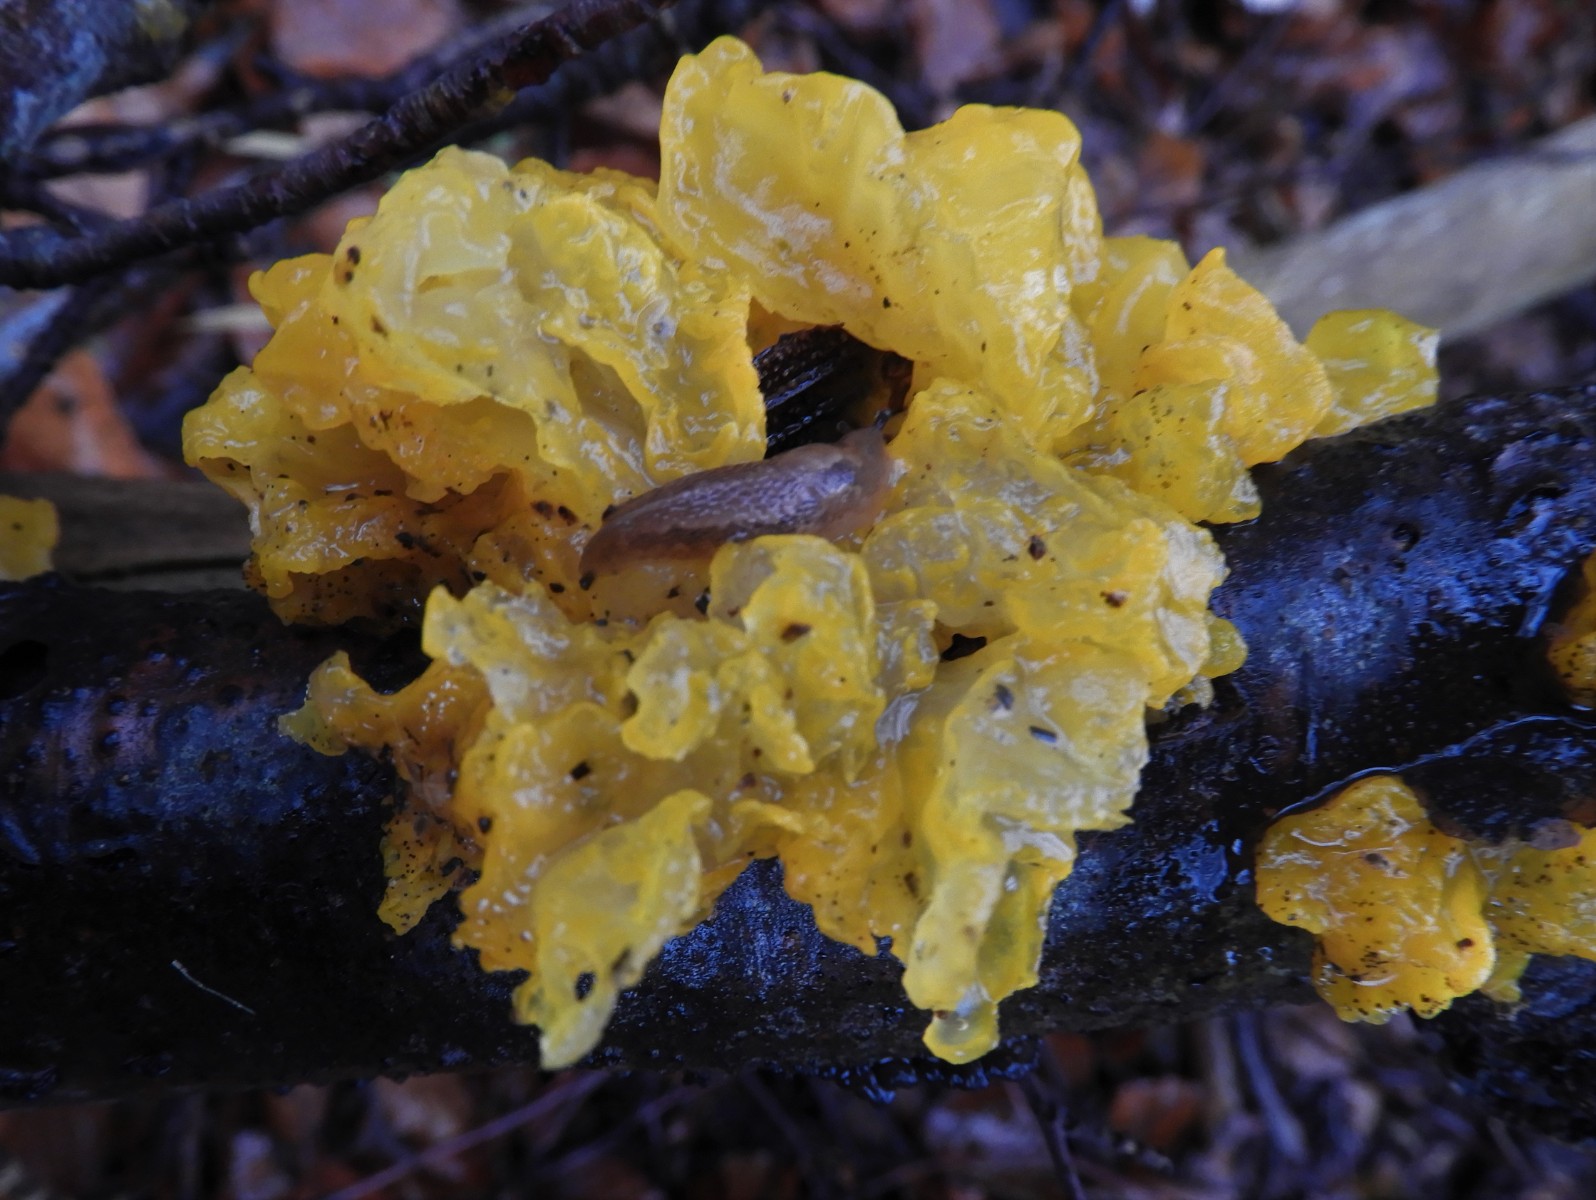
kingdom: Fungi
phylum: Basidiomycota
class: Tremellomycetes
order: Tremellales
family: Tremellaceae
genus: Tremella
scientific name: Tremella mesenterica
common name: gul bævresvamp
